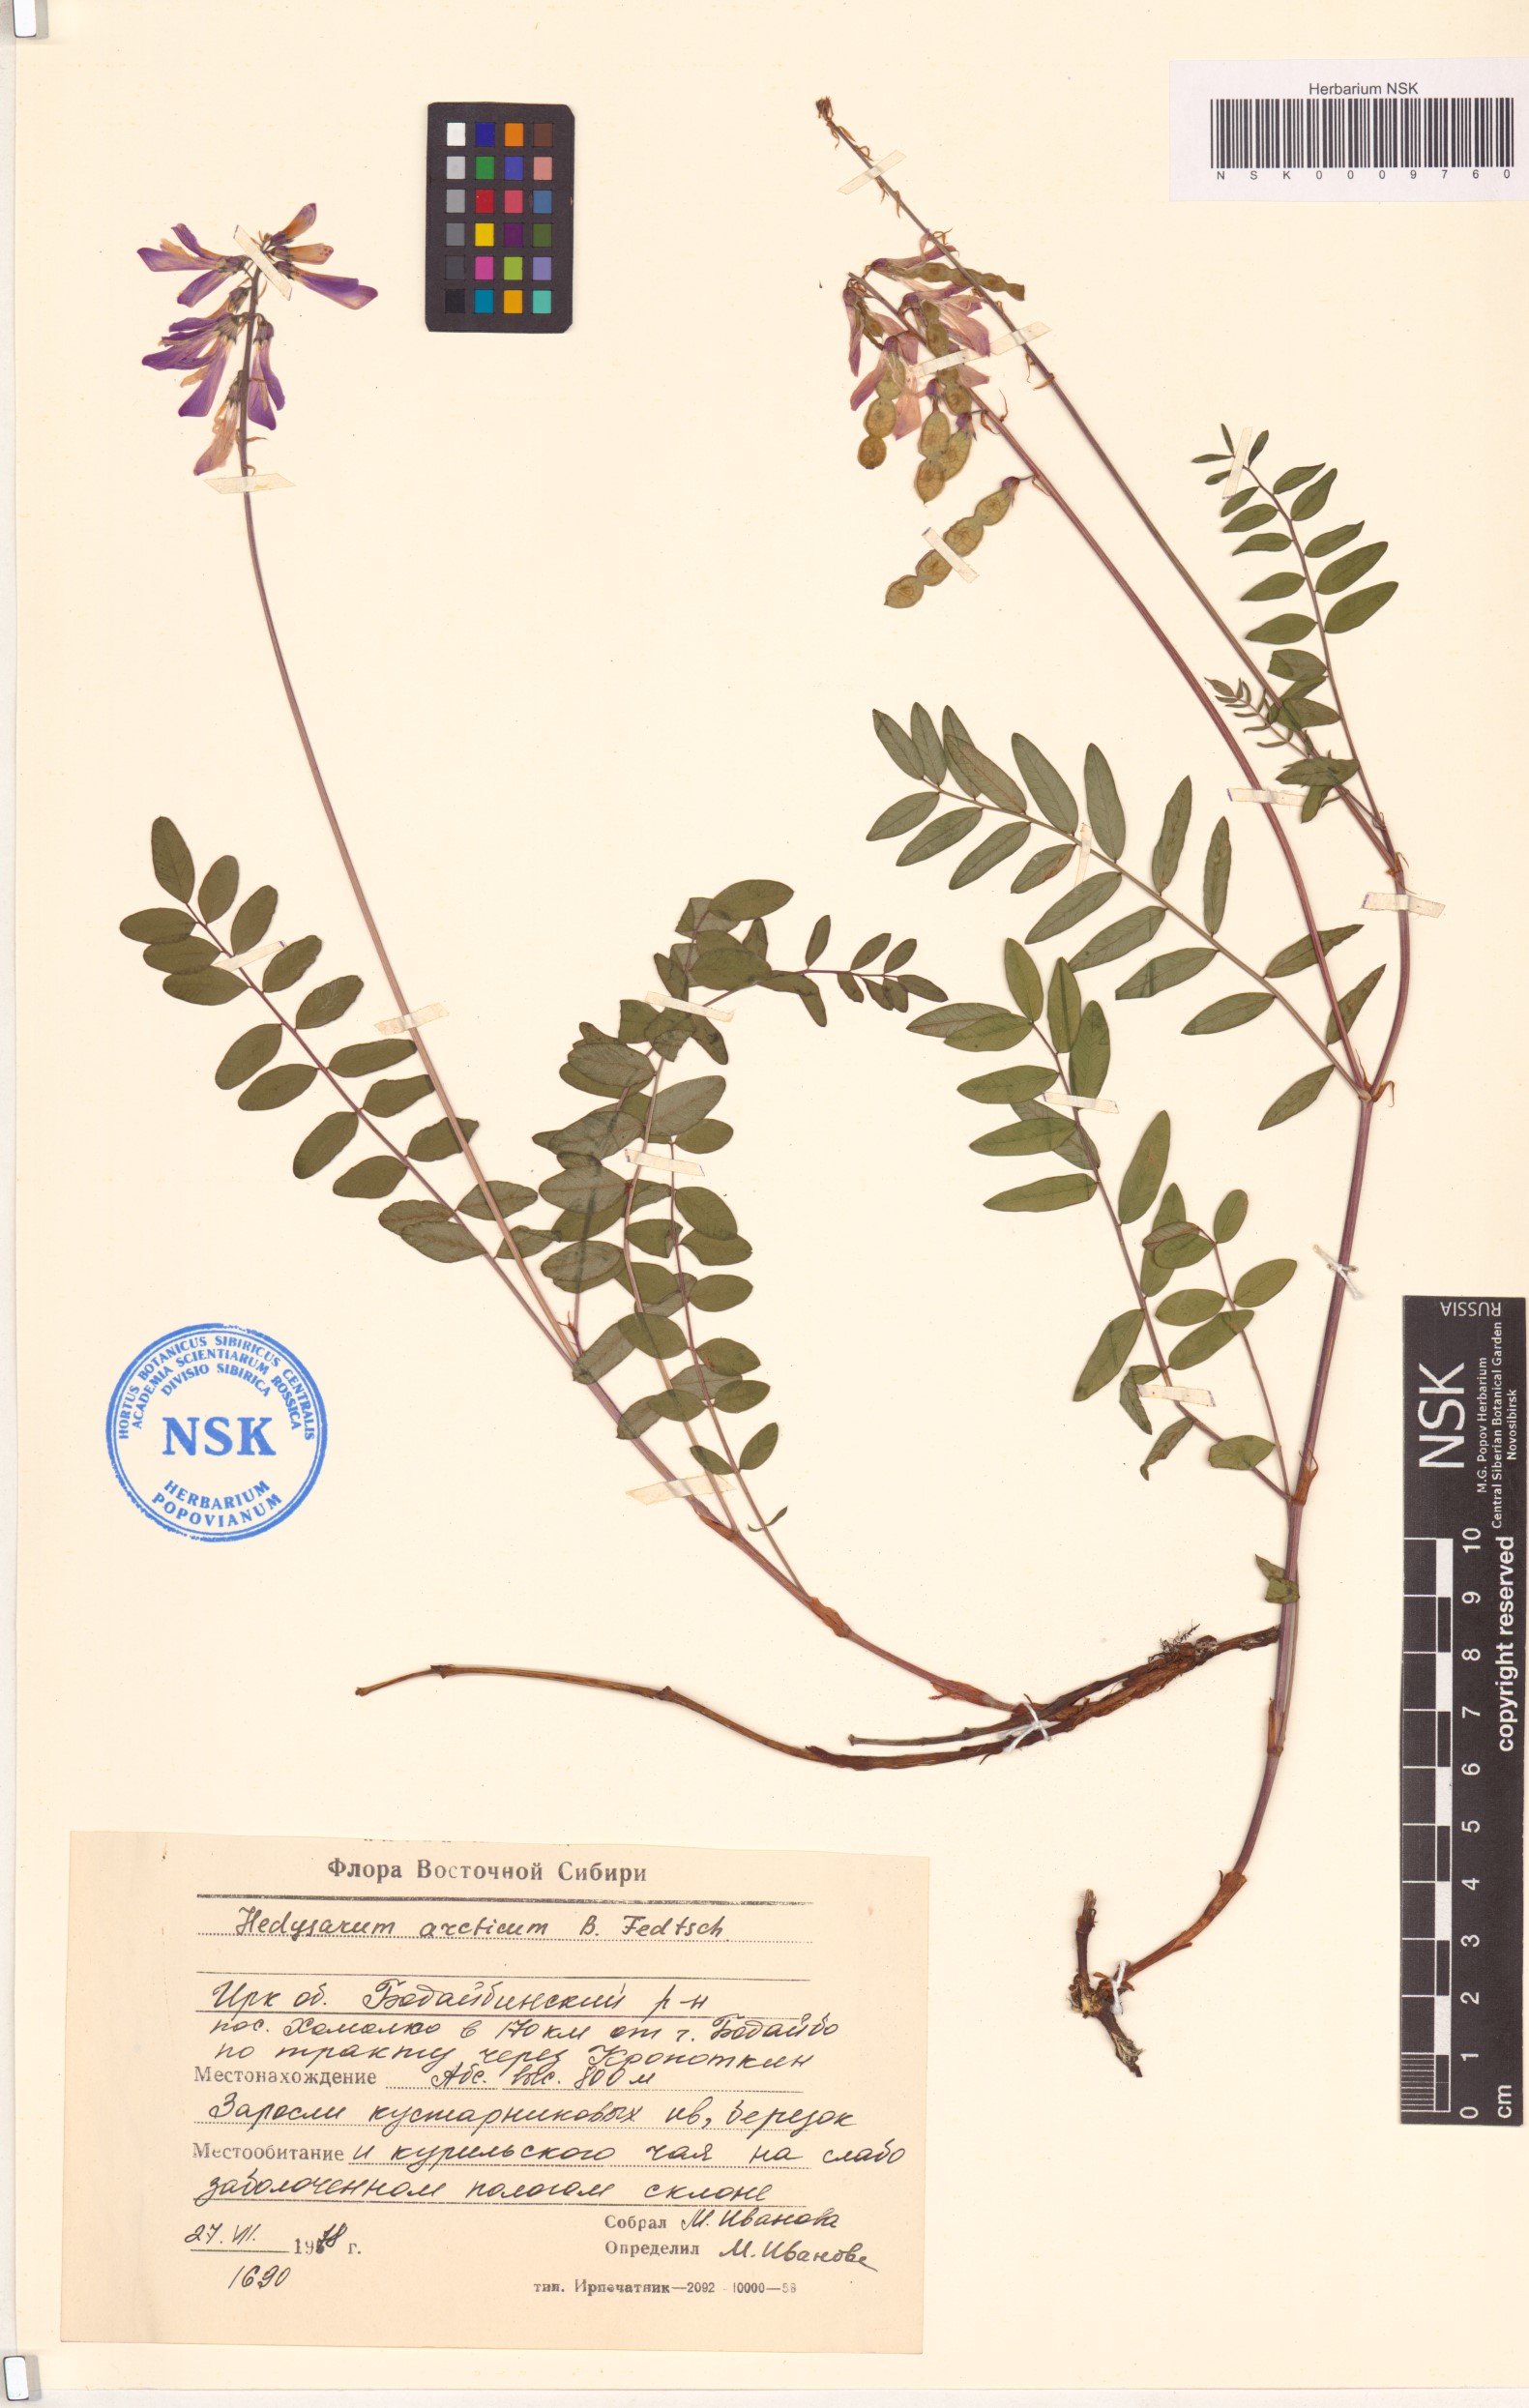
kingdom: Plantae
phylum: Tracheophyta
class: Magnoliopsida
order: Fabales
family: Fabaceae
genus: Hedysarum
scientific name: Hedysarum hedysaroides
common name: Alpine french-honeysuckle
